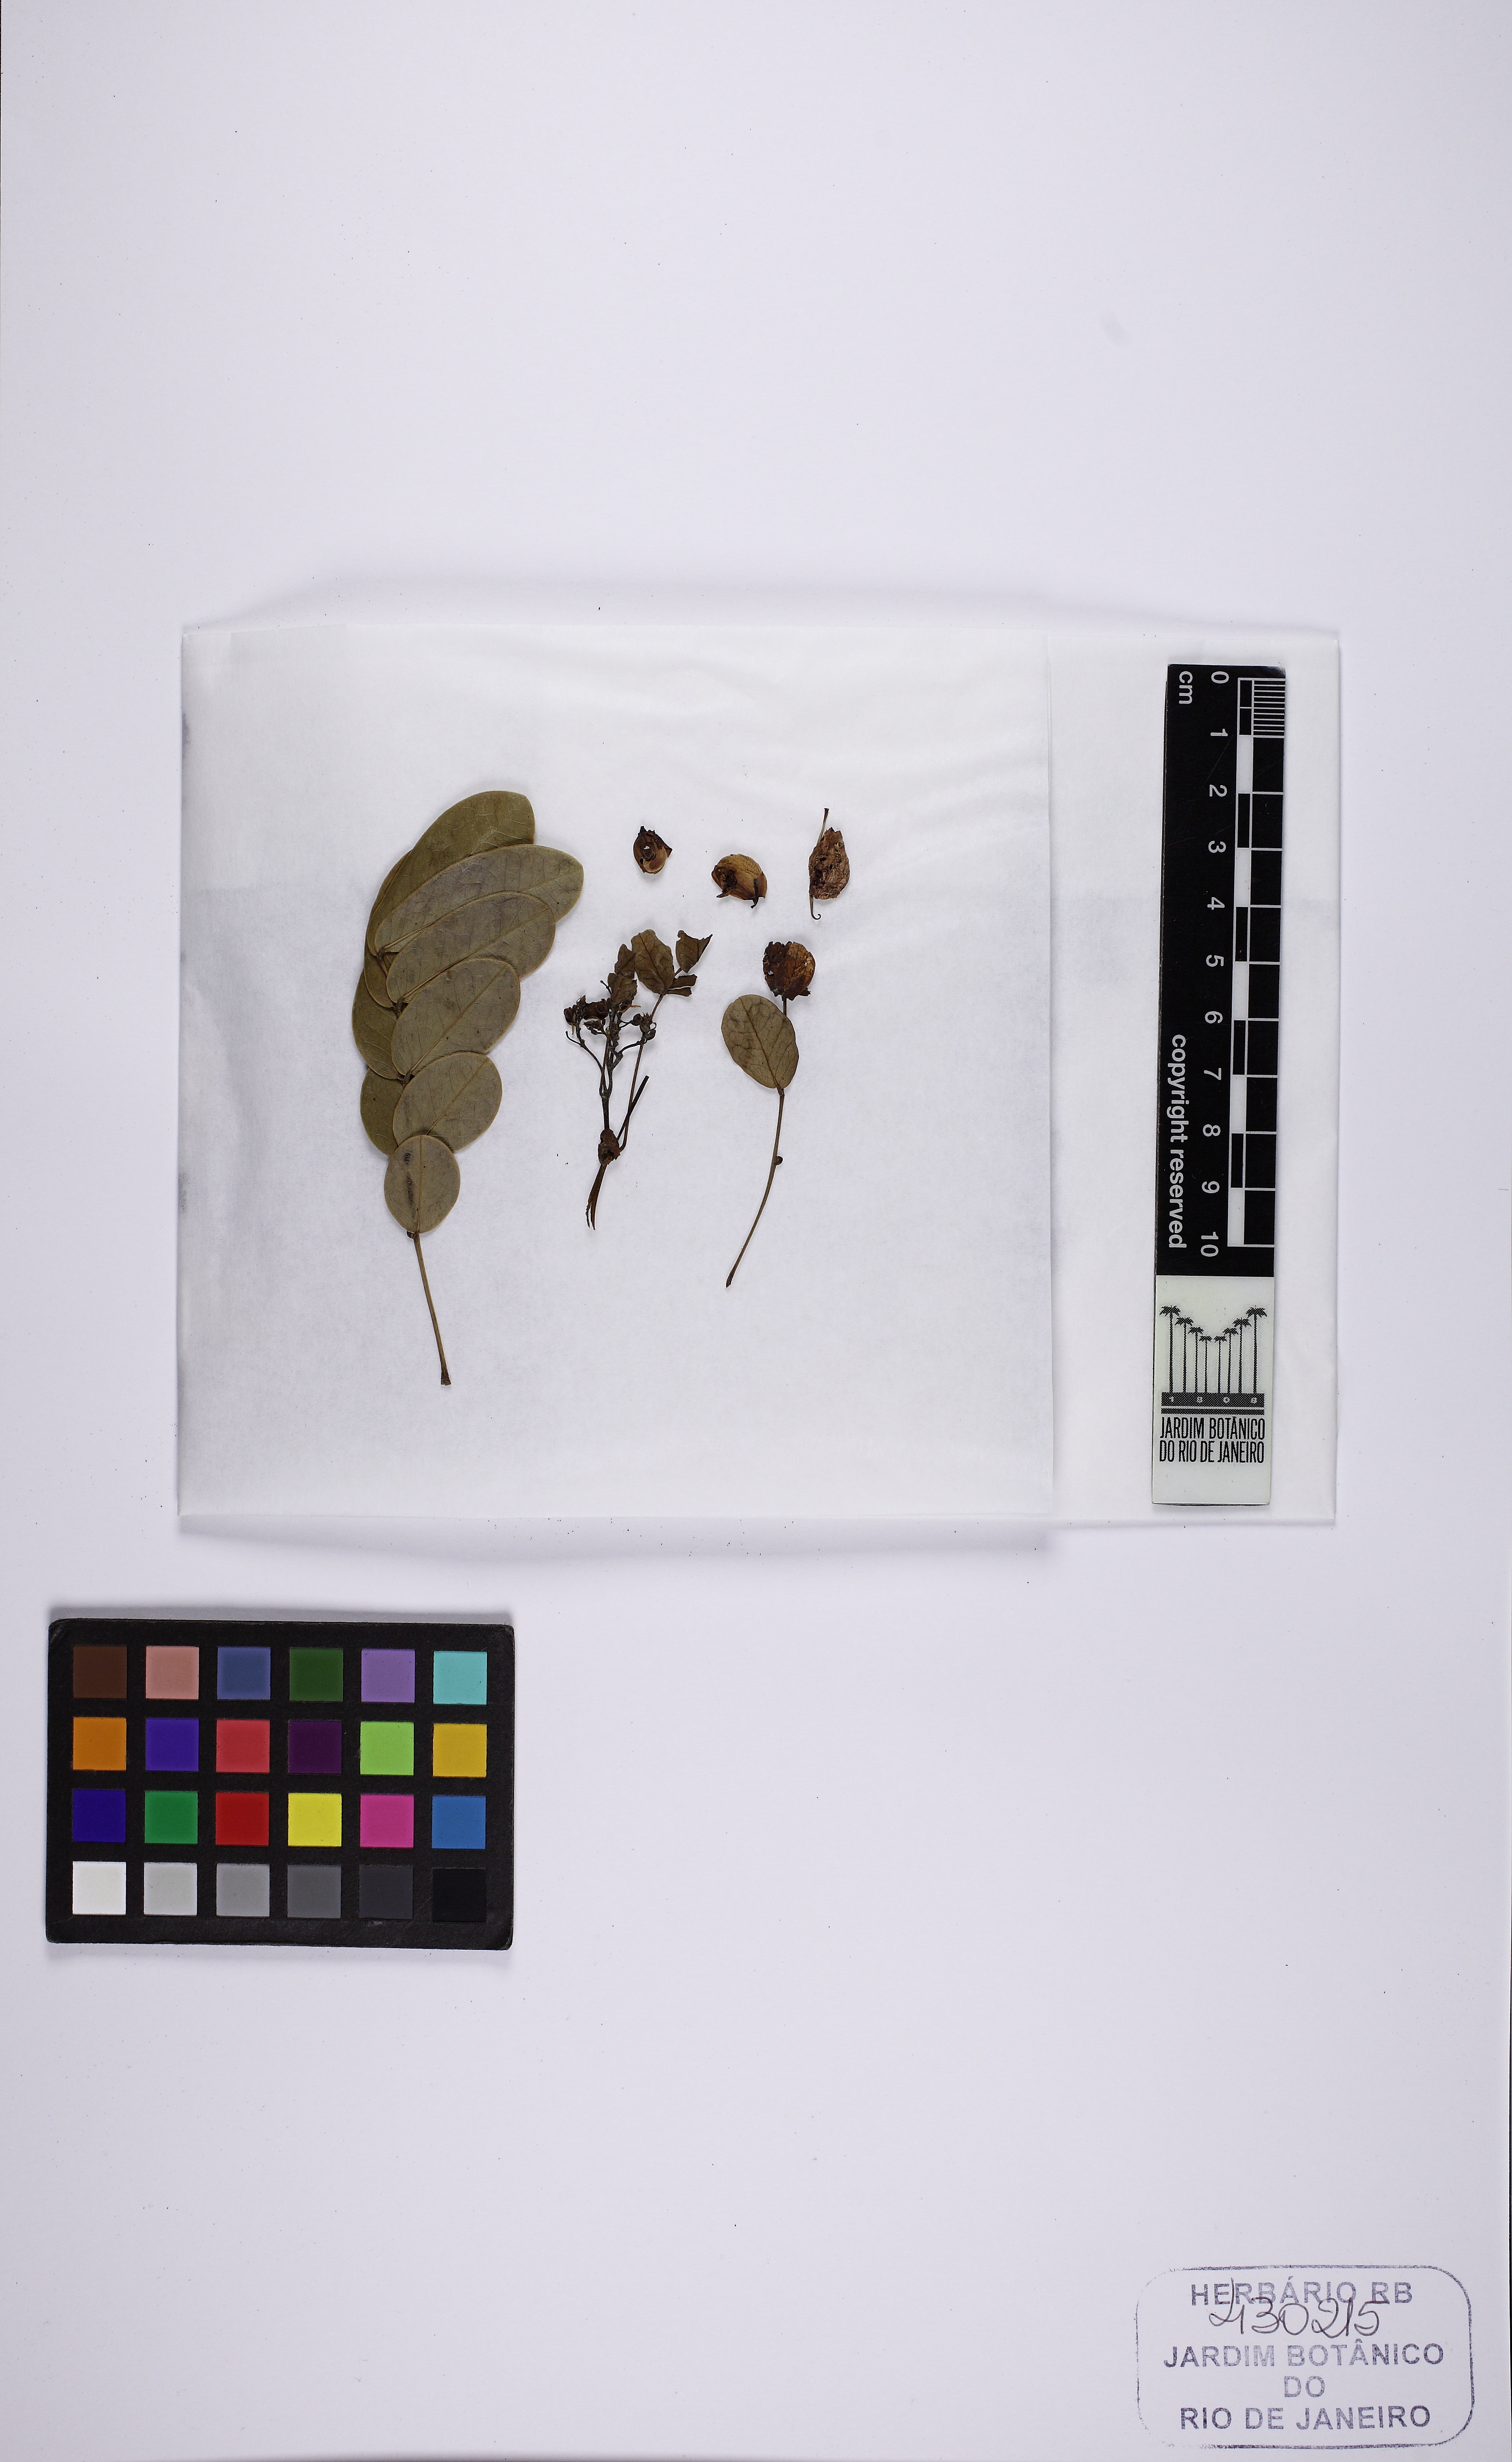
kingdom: Plantae
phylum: Tracheophyta
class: Magnoliopsida
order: Fabales
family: Fabaceae
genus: Senna
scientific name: Senna pendula
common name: Easter cassia
